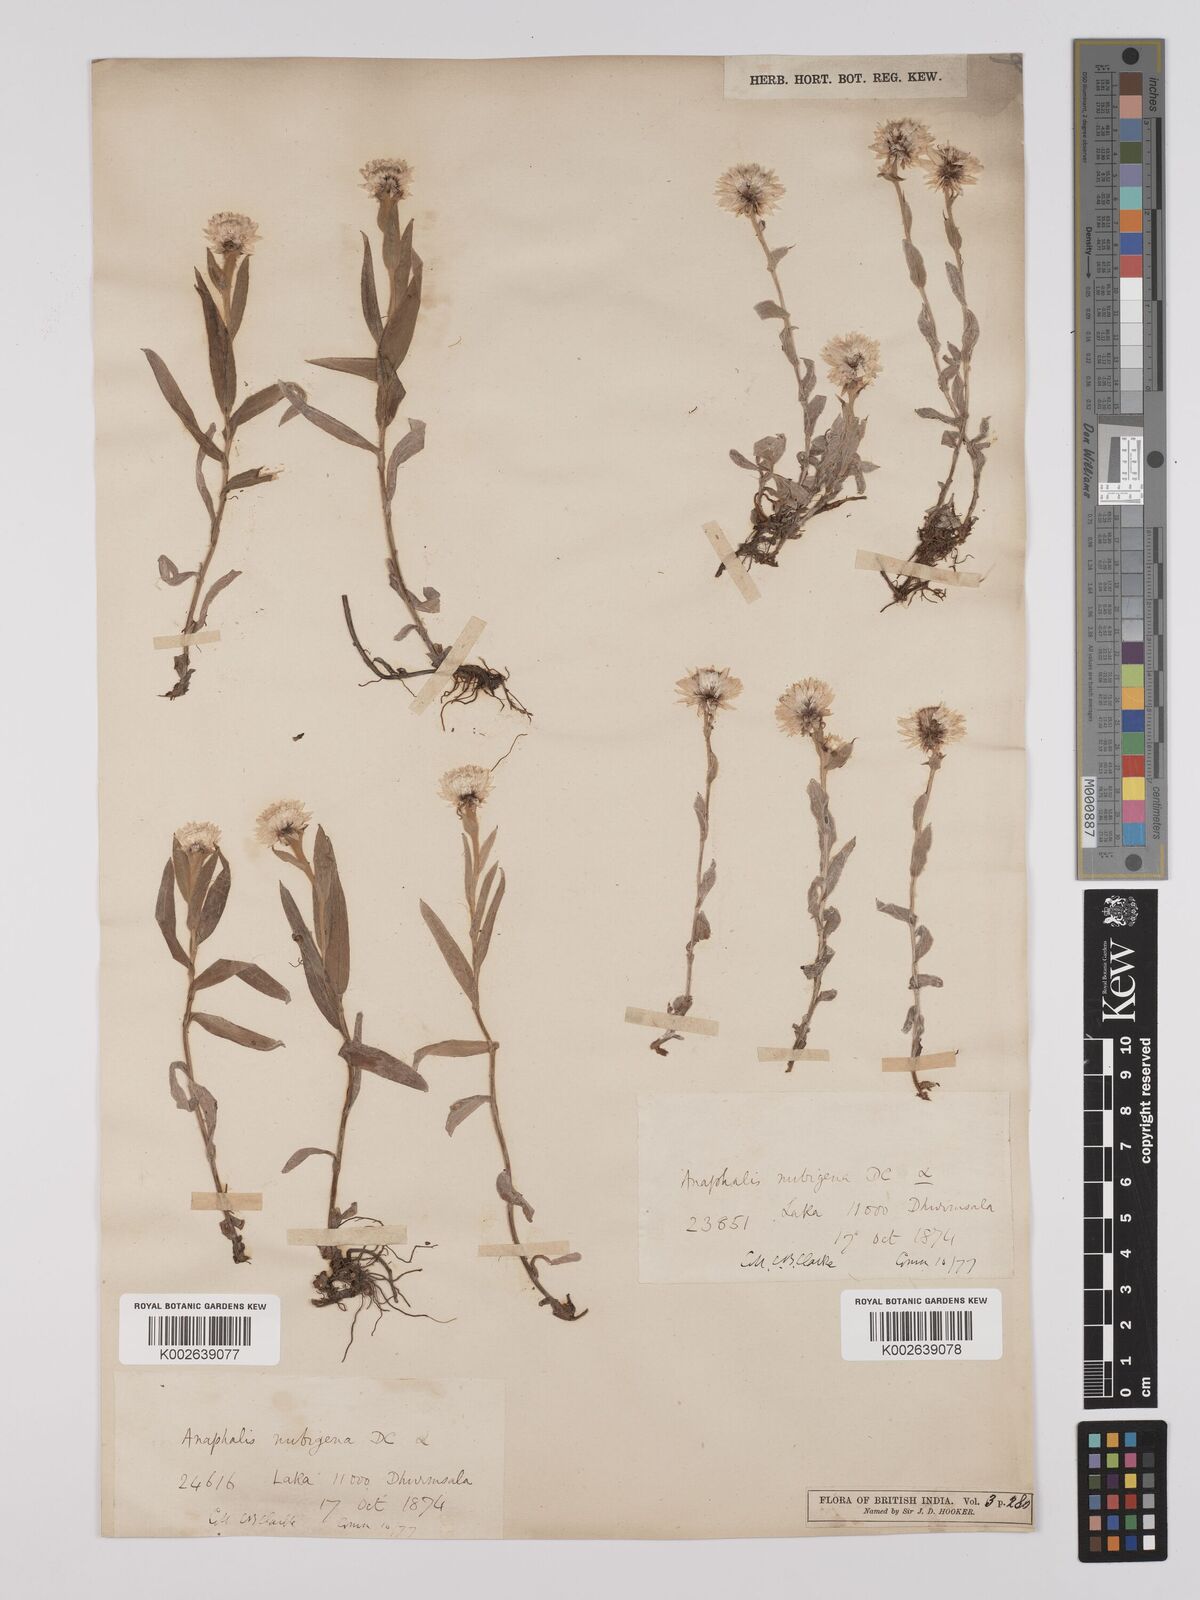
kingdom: Plantae
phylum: Tracheophyta
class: Magnoliopsida
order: Asterales
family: Asteraceae
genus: Anaphalis
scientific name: Anaphalis nepalensis
